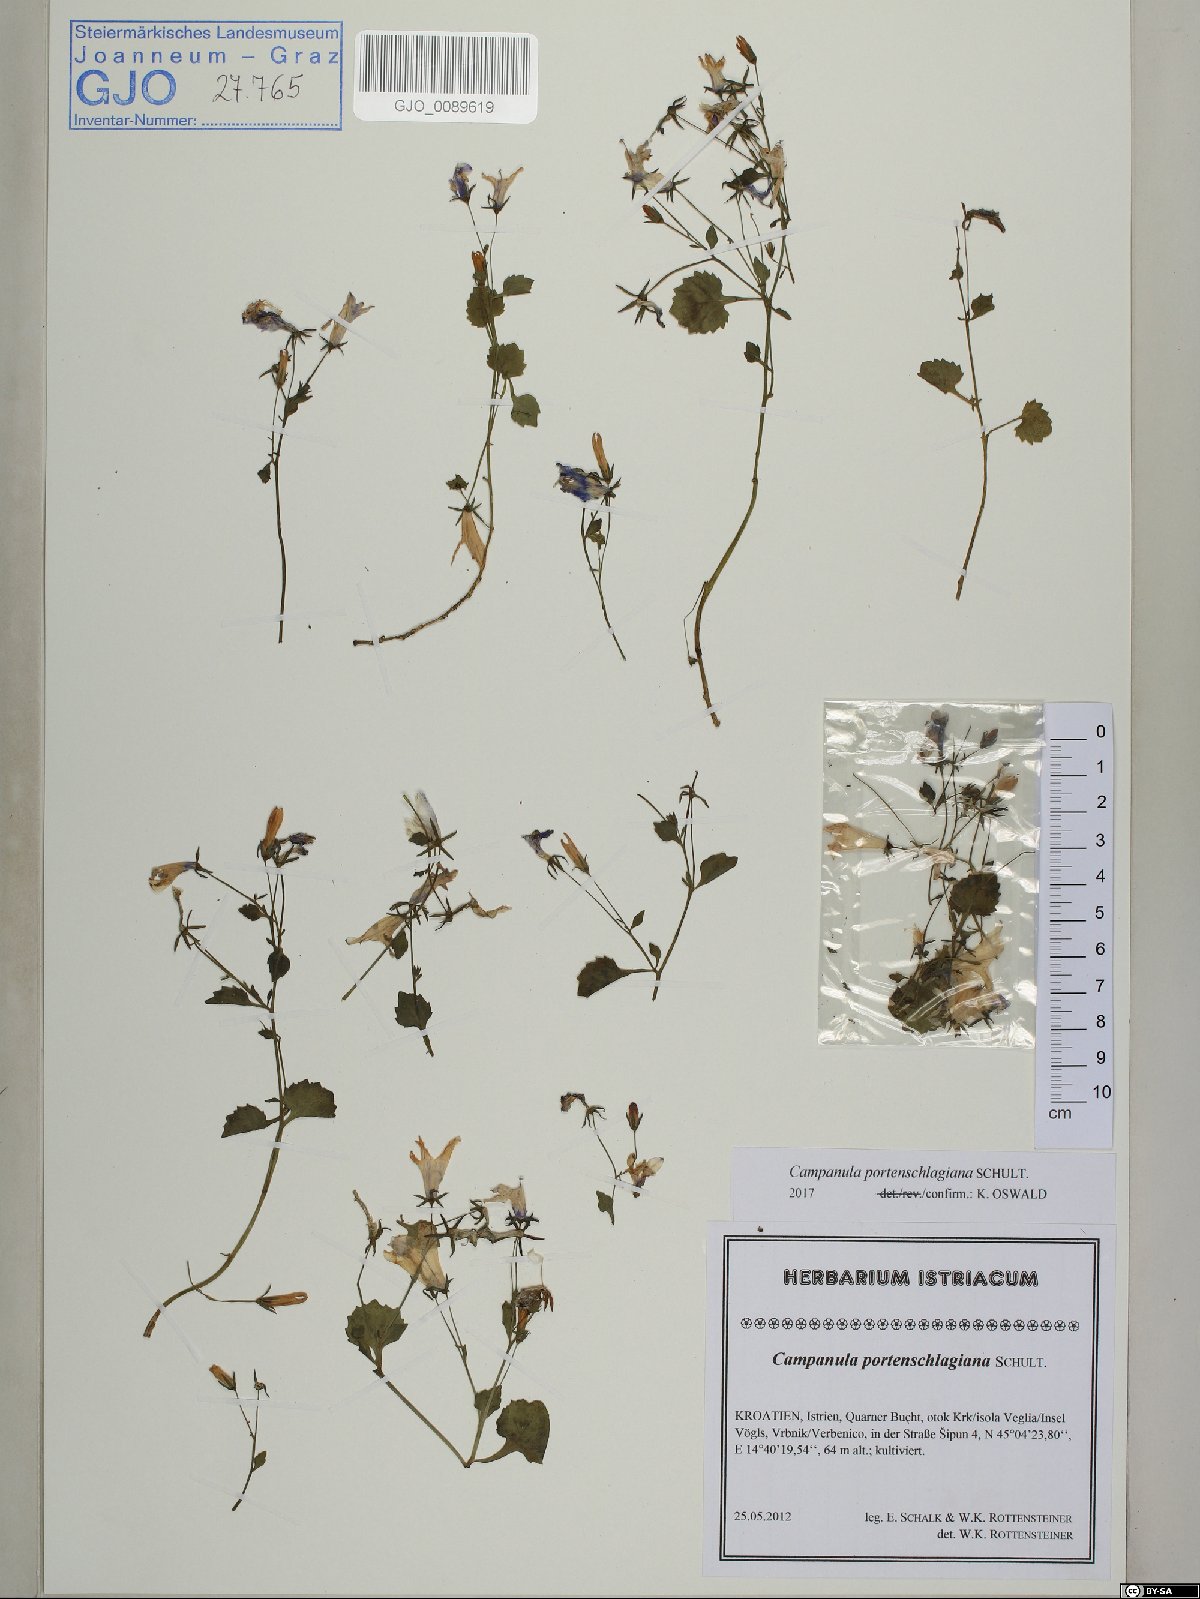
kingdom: Plantae
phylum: Tracheophyta
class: Magnoliopsida
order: Asterales
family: Campanulaceae
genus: Campanula
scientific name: Campanula portenschlagiana
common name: Adria bellflower
